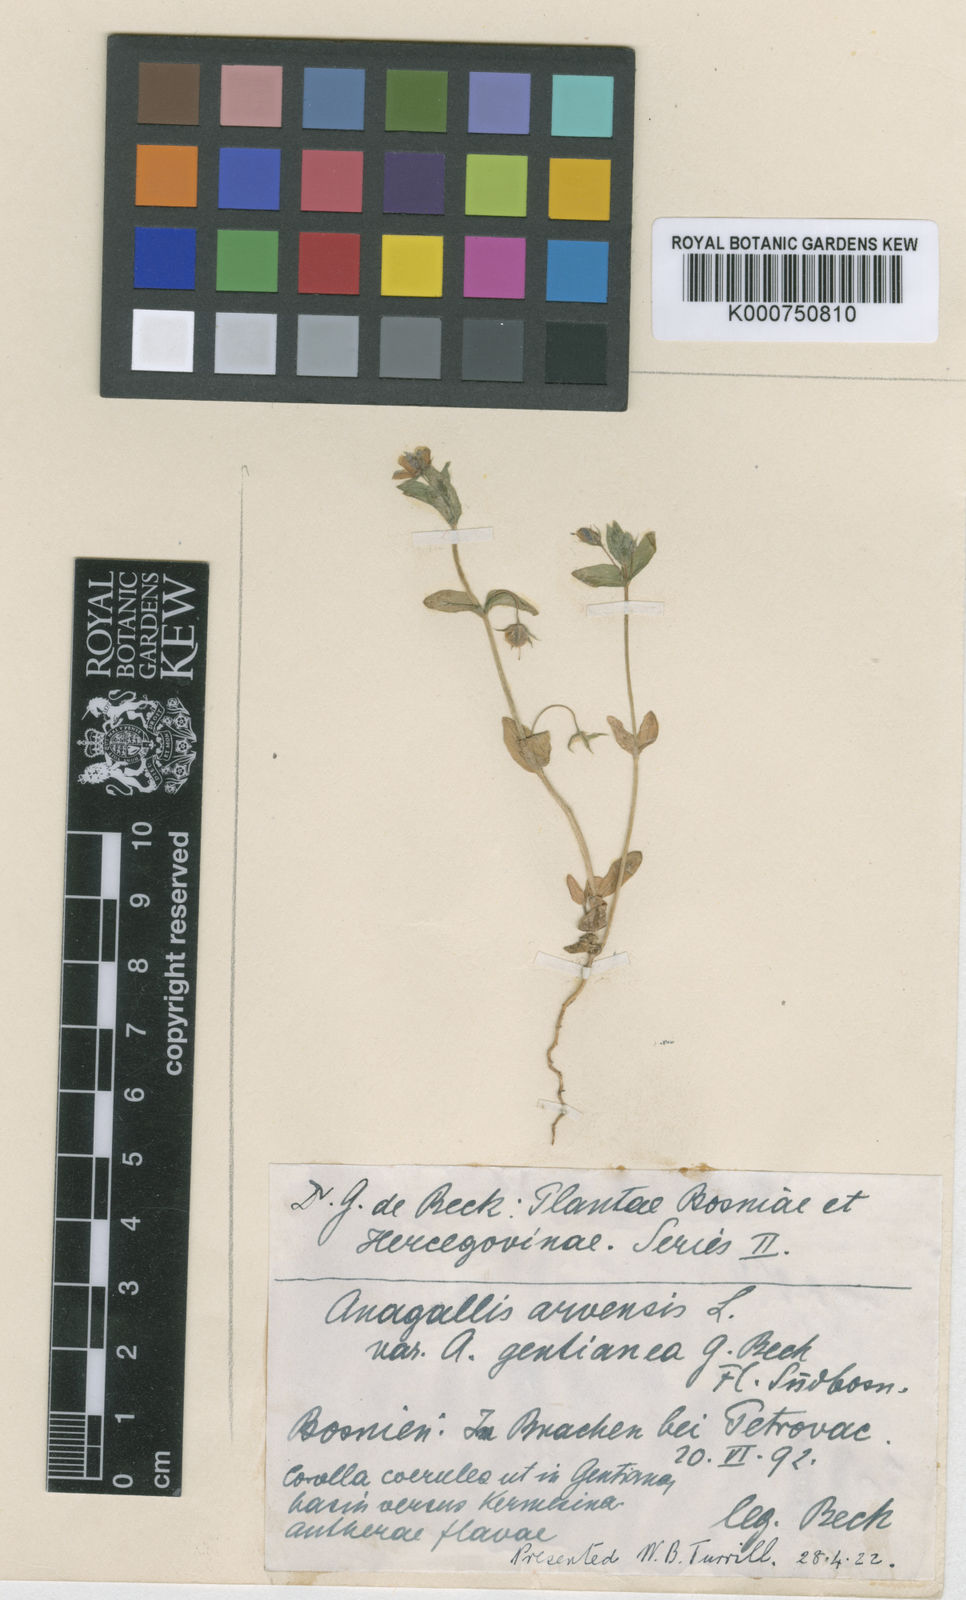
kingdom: Plantae
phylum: Tracheophyta
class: Magnoliopsida
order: Ericales
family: Primulaceae
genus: Lysimachia
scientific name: Lysimachia arvensis
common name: Scarlet pimpernel
